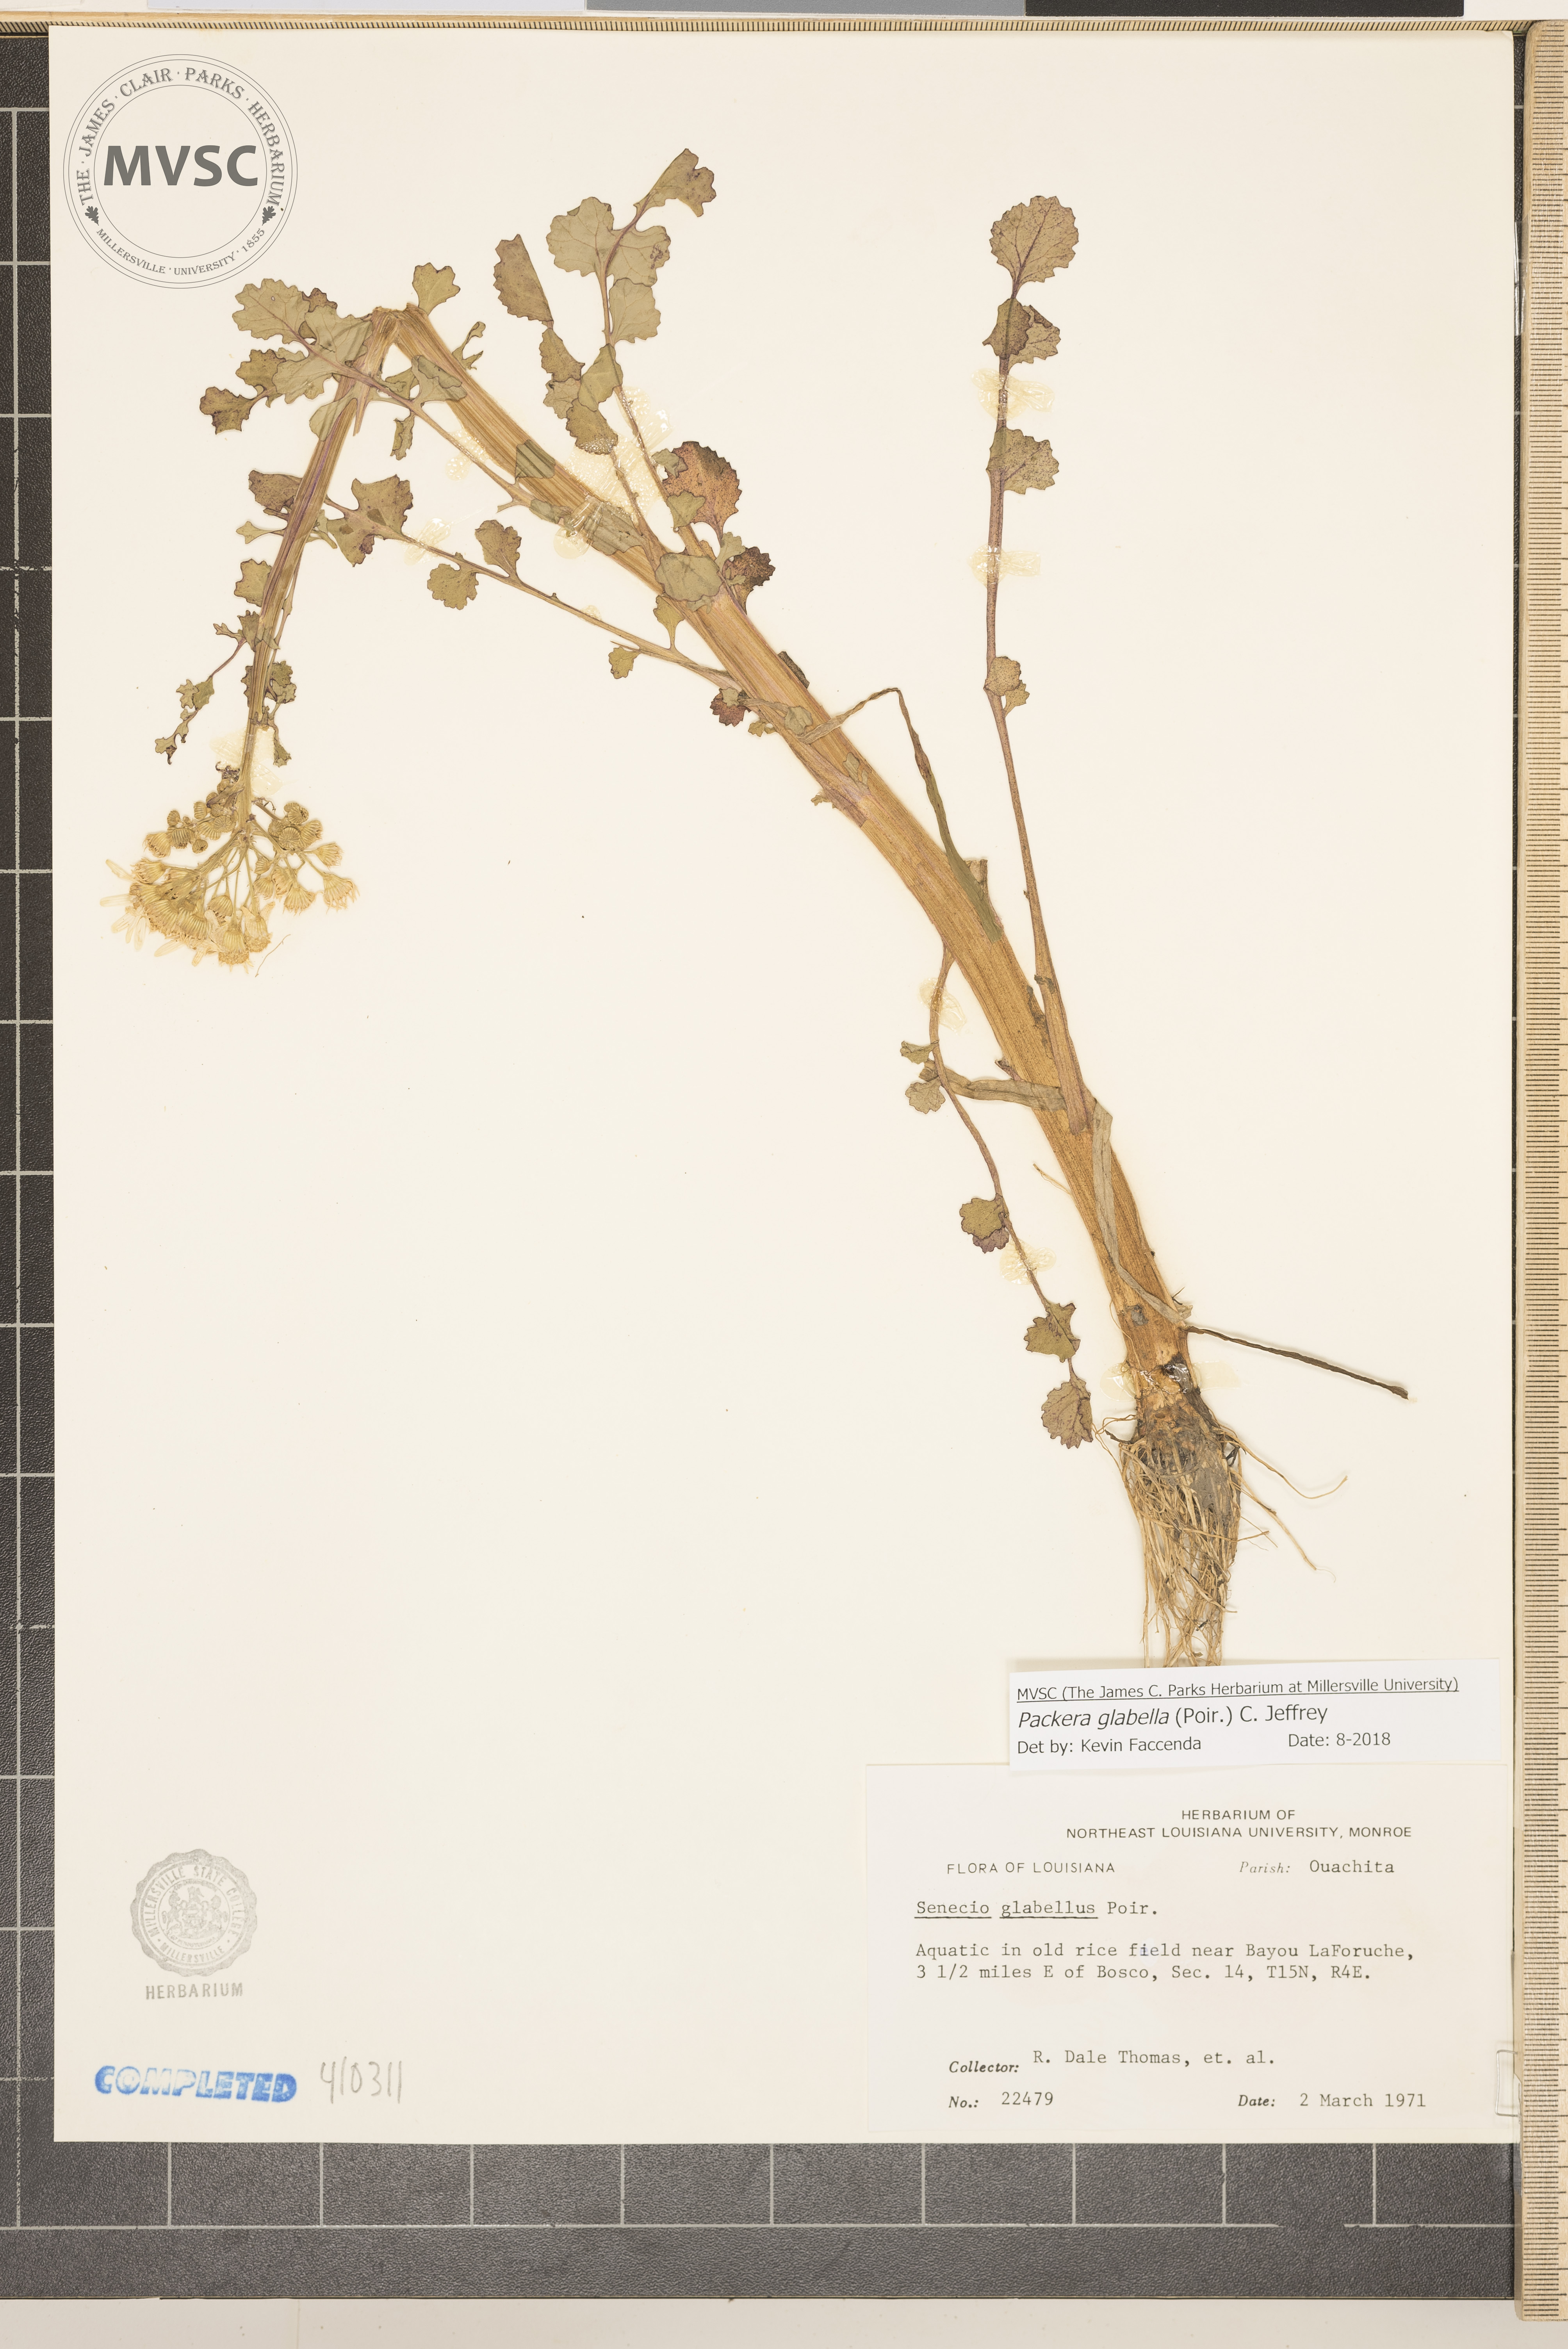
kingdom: Plantae
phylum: Tracheophyta
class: Magnoliopsida
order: Asterales
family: Asteraceae
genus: Packera
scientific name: Packera glabella
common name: Butterweed
